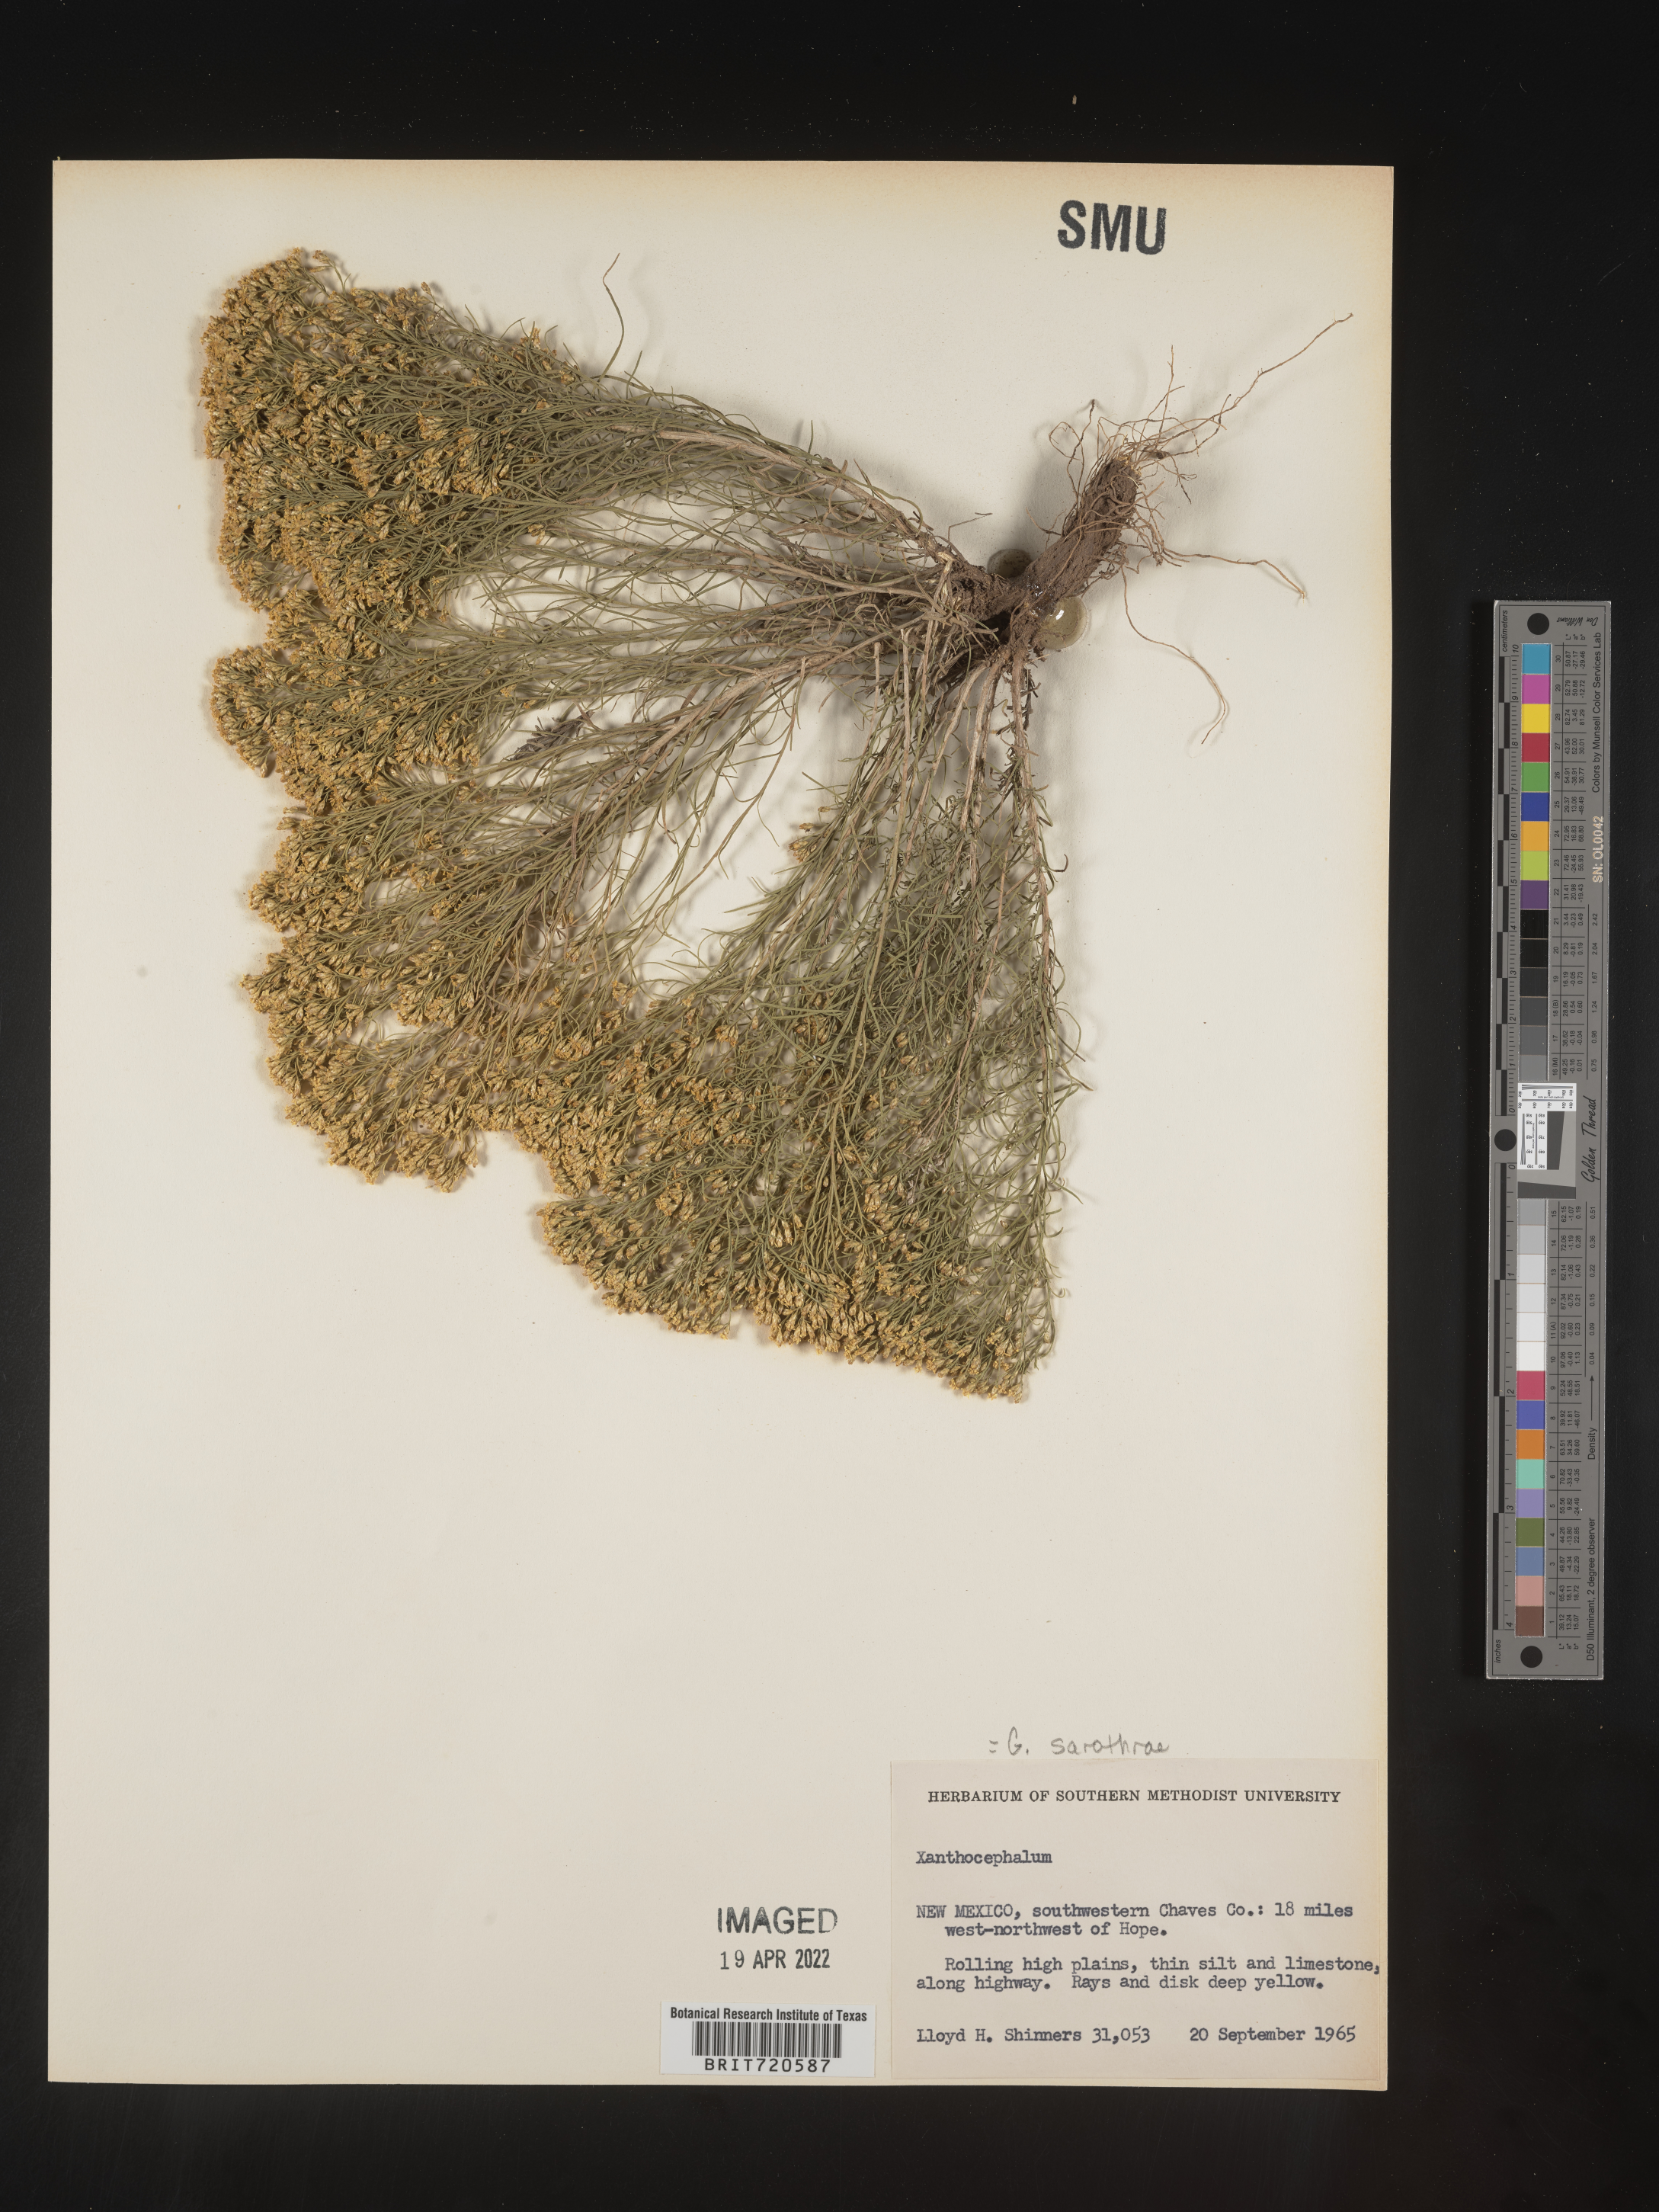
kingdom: Plantae
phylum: Tracheophyta
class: Magnoliopsida
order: Asterales
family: Asteraceae
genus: Gutierrezia
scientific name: Gutierrezia sarothrae
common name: Broom snakeweed
